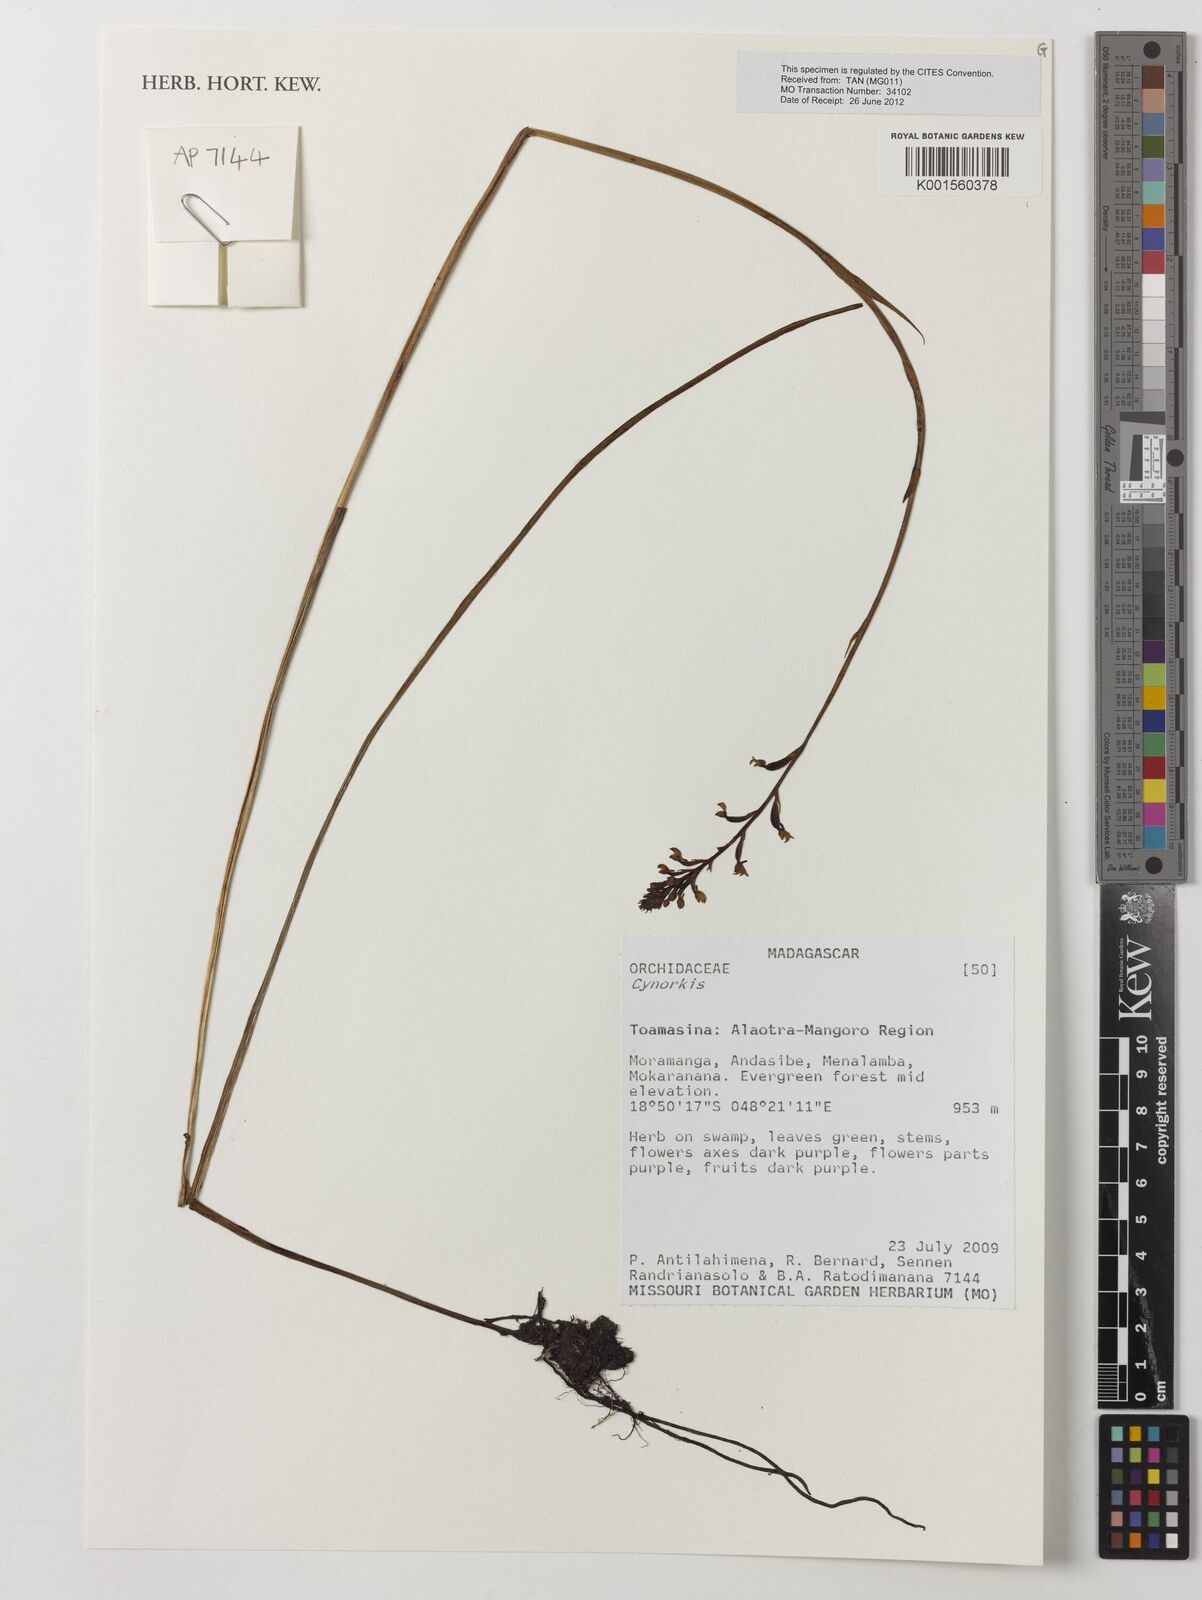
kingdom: Plantae
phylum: Tracheophyta
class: Liliopsida
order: Asparagales
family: Orchidaceae
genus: Cynorkis
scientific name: Cynorkis
